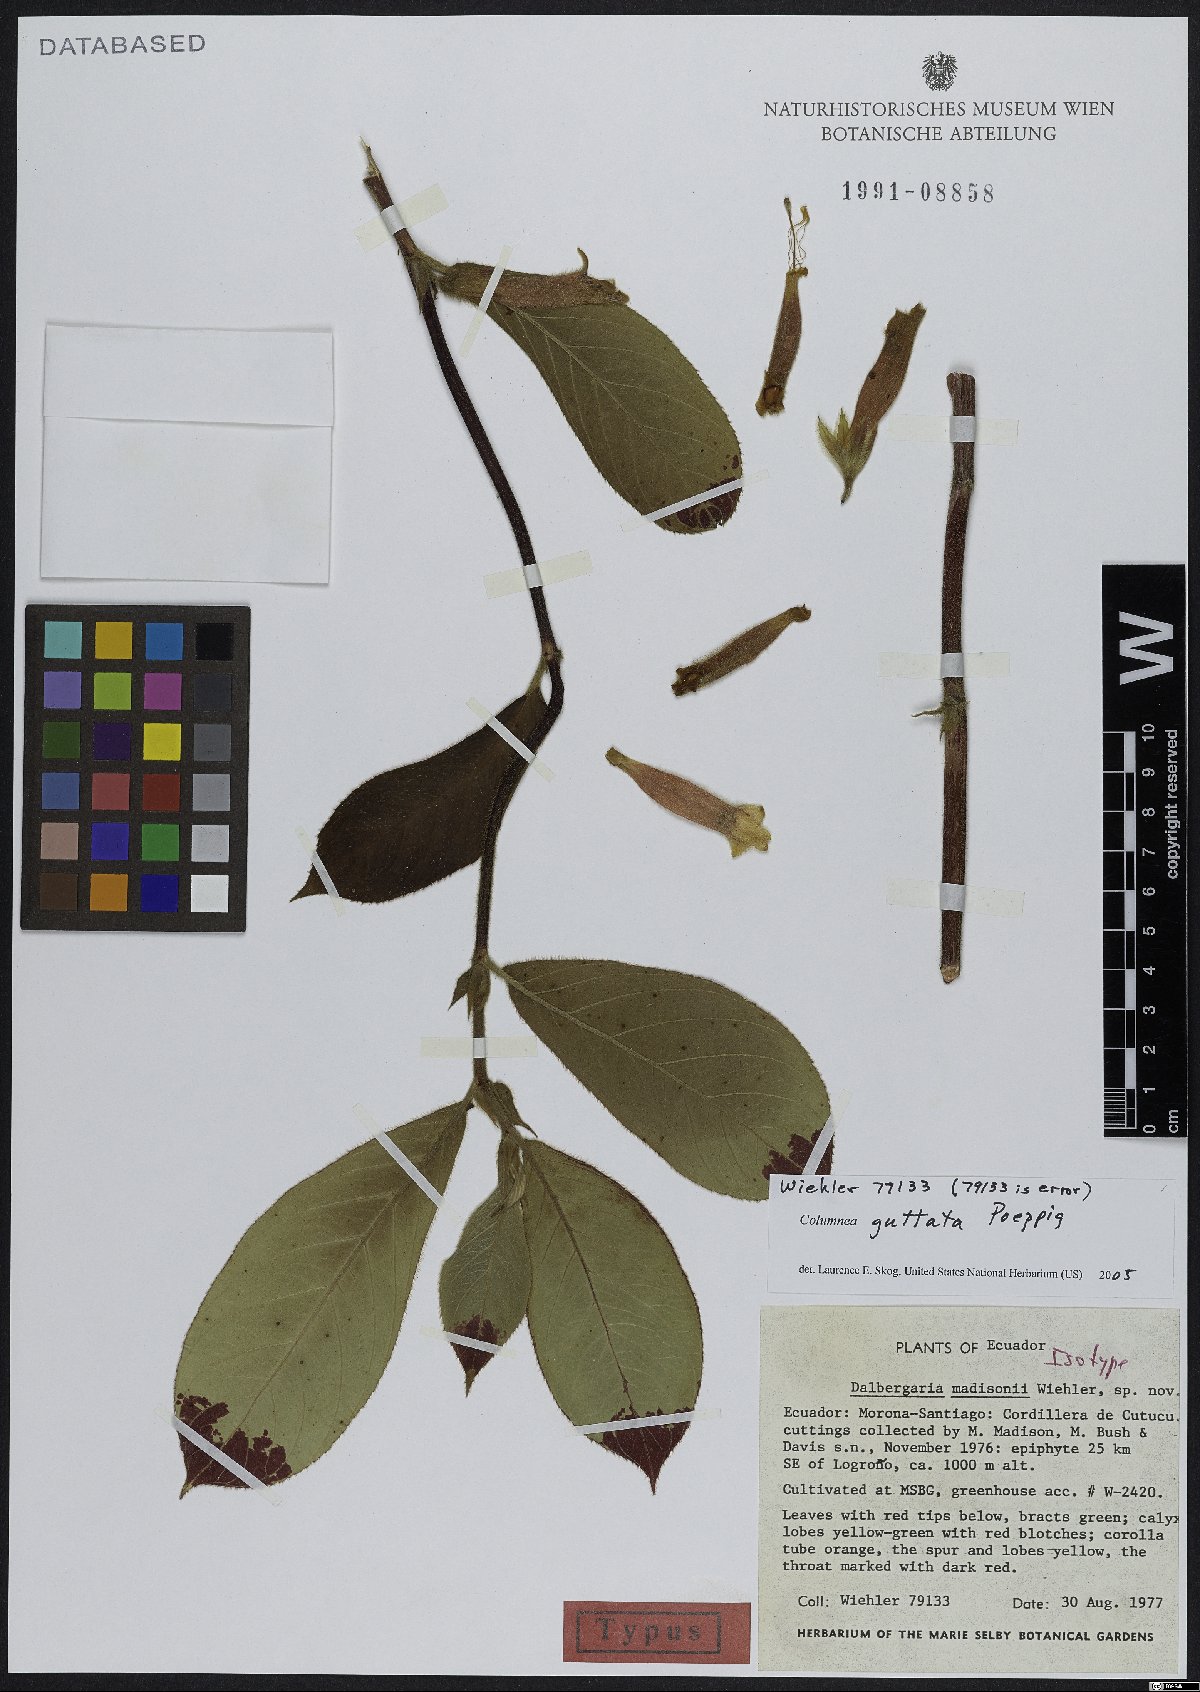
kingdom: Plantae
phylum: Tracheophyta
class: Magnoliopsida
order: Lamiales
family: Gesneriaceae
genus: Columnea
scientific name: Columnea guttata
